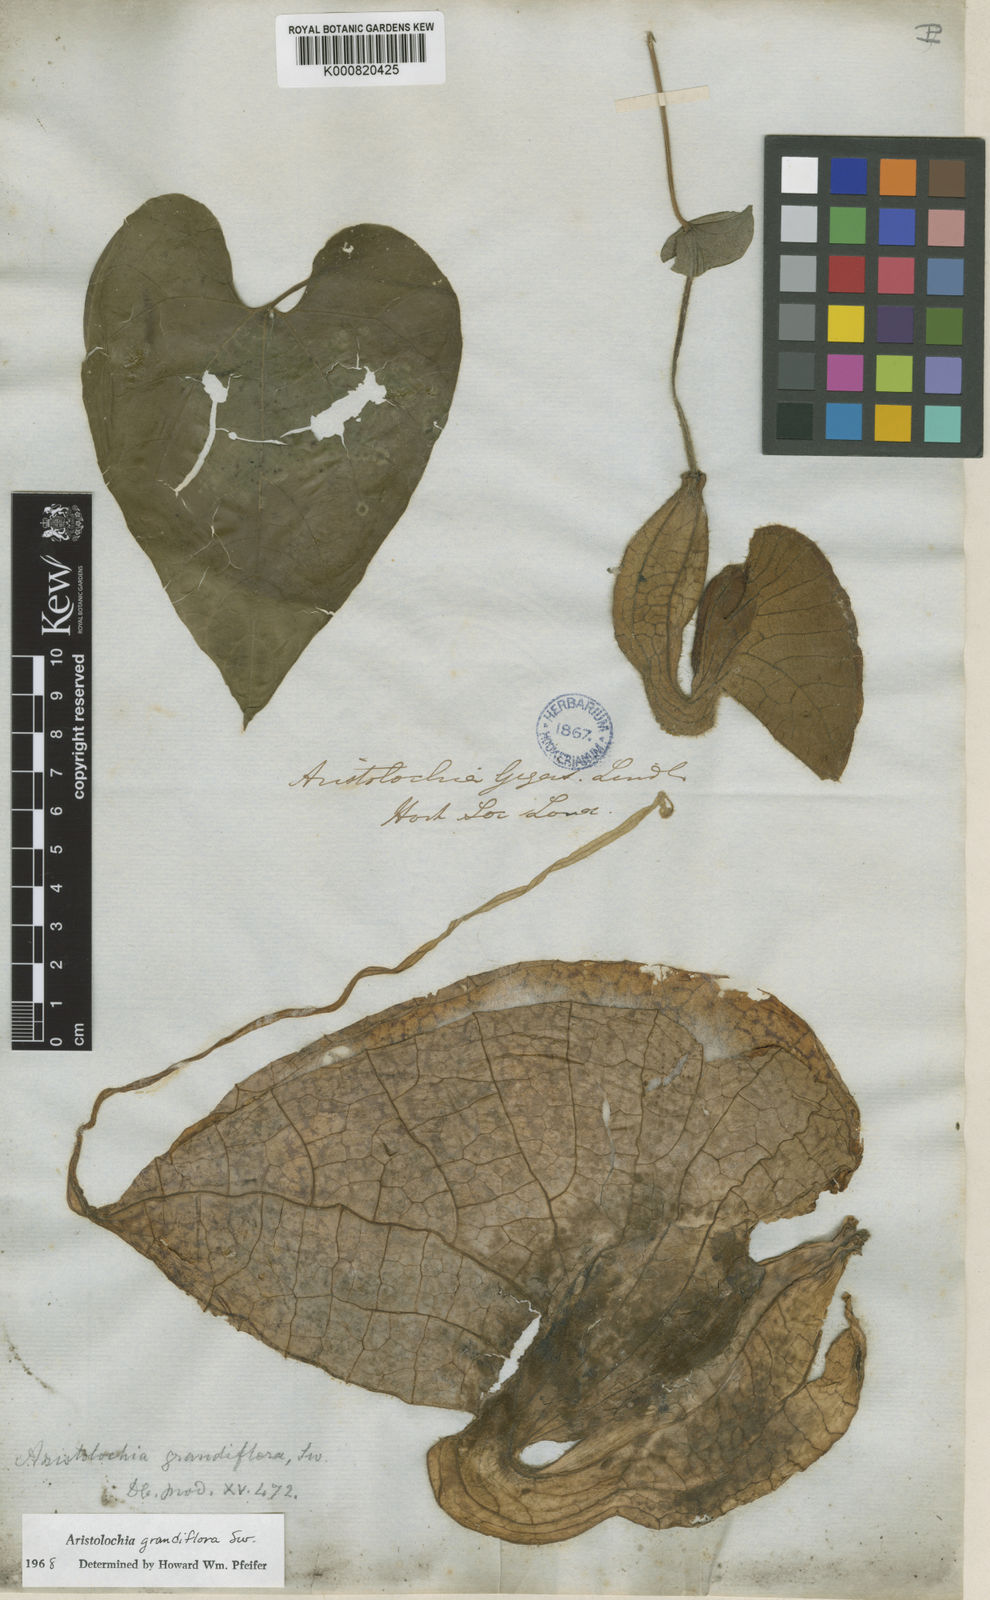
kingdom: Plantae
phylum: Tracheophyta
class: Magnoliopsida
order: Piperales
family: Aristolochiaceae
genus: Aristolochia
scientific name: Aristolochia grandiflora
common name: Pelicanflower
